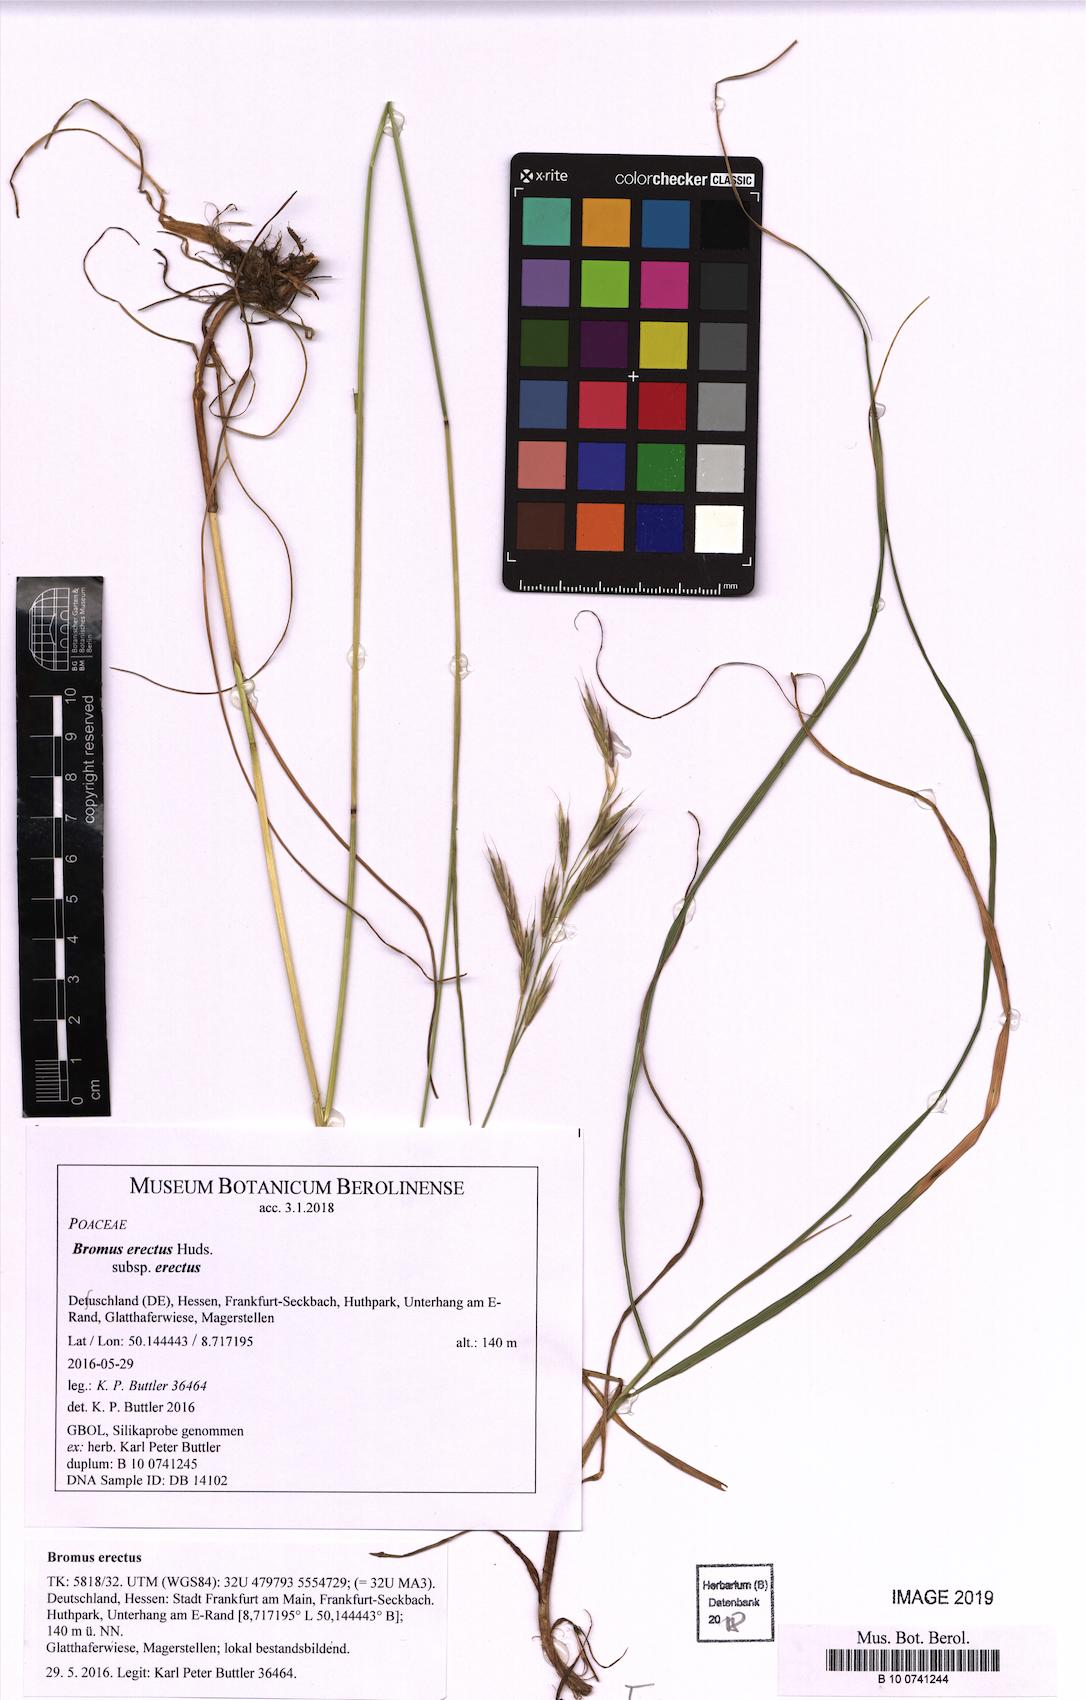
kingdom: Plantae
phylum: Tracheophyta
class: Liliopsida
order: Poales
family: Poaceae
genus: Bromus
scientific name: Bromus erectus
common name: Erect brome
